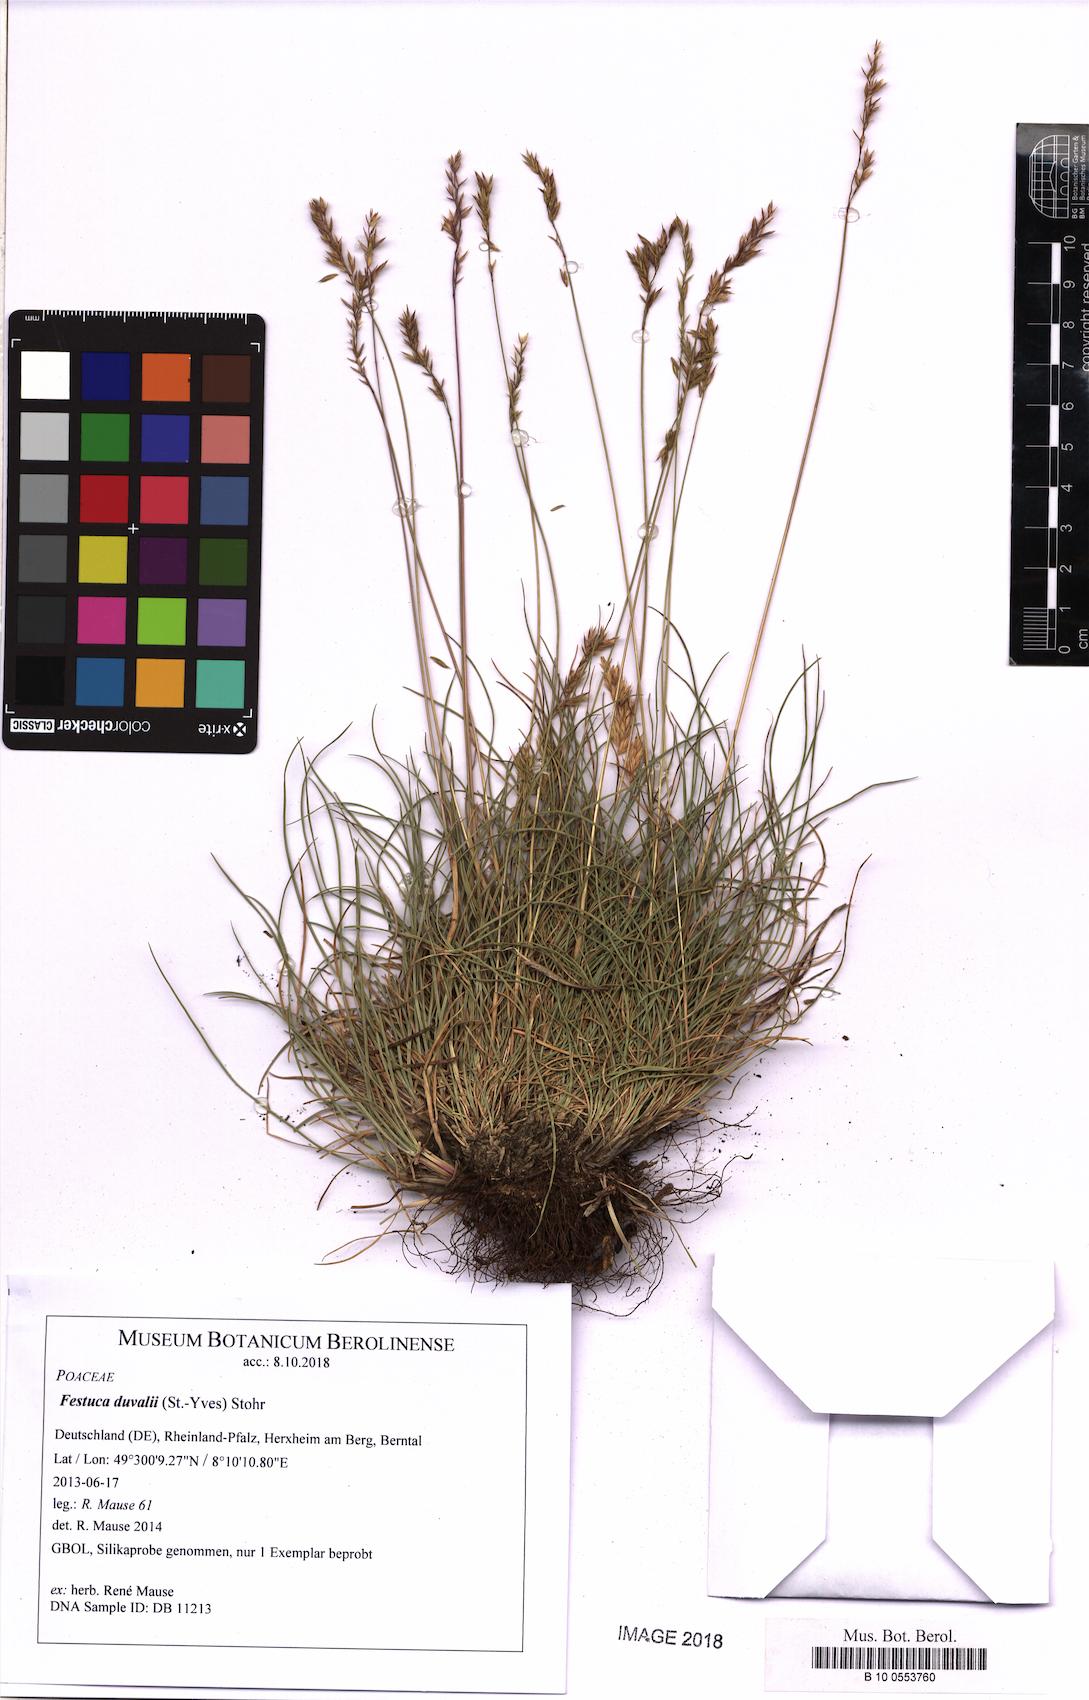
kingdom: Plantae
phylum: Tracheophyta
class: Liliopsida
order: Poales
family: Poaceae
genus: Festuca
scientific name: Festuca duvalii
